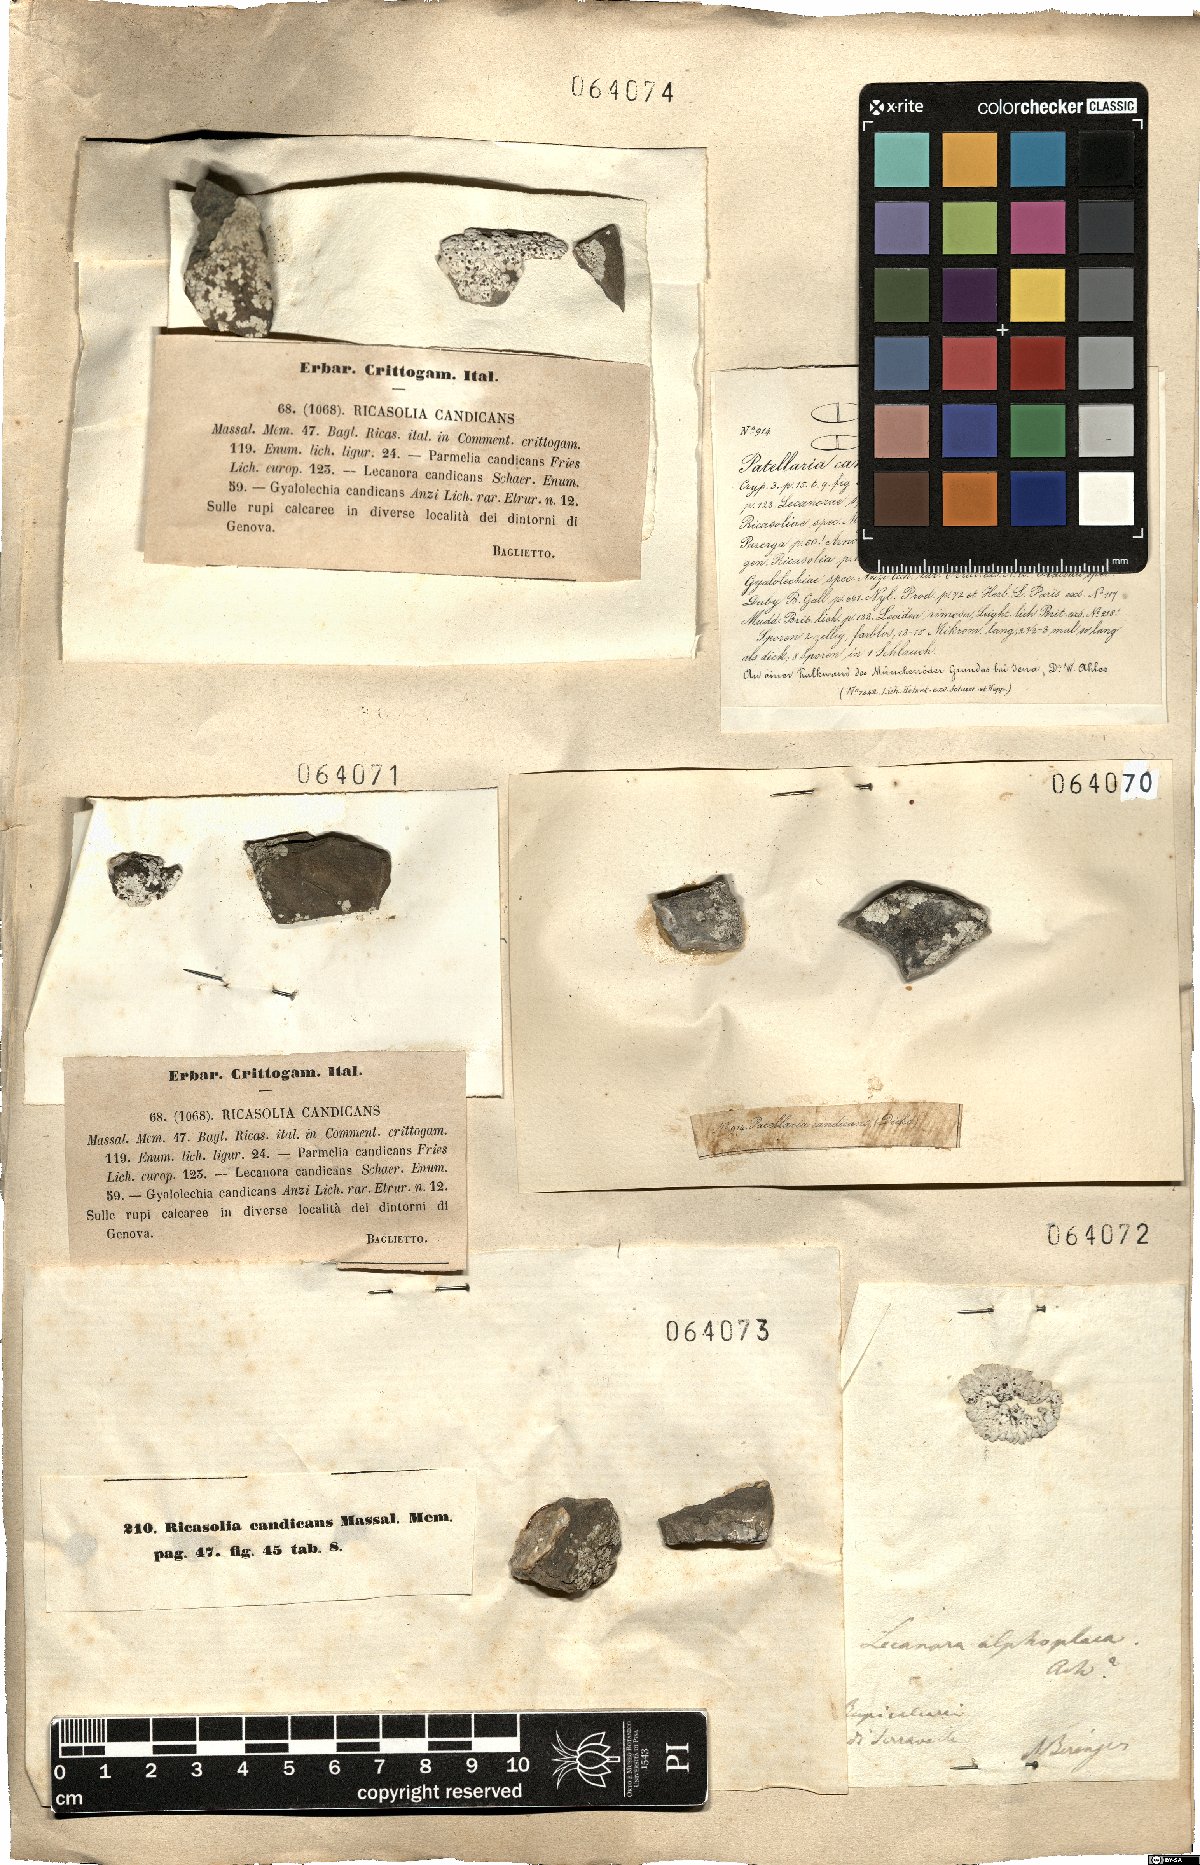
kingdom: Fungi
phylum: Ascomycota
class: Lecanoromycetes
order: Lecanorales
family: Catillariaceae
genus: Solenopsora
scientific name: Solenopsora candicans
